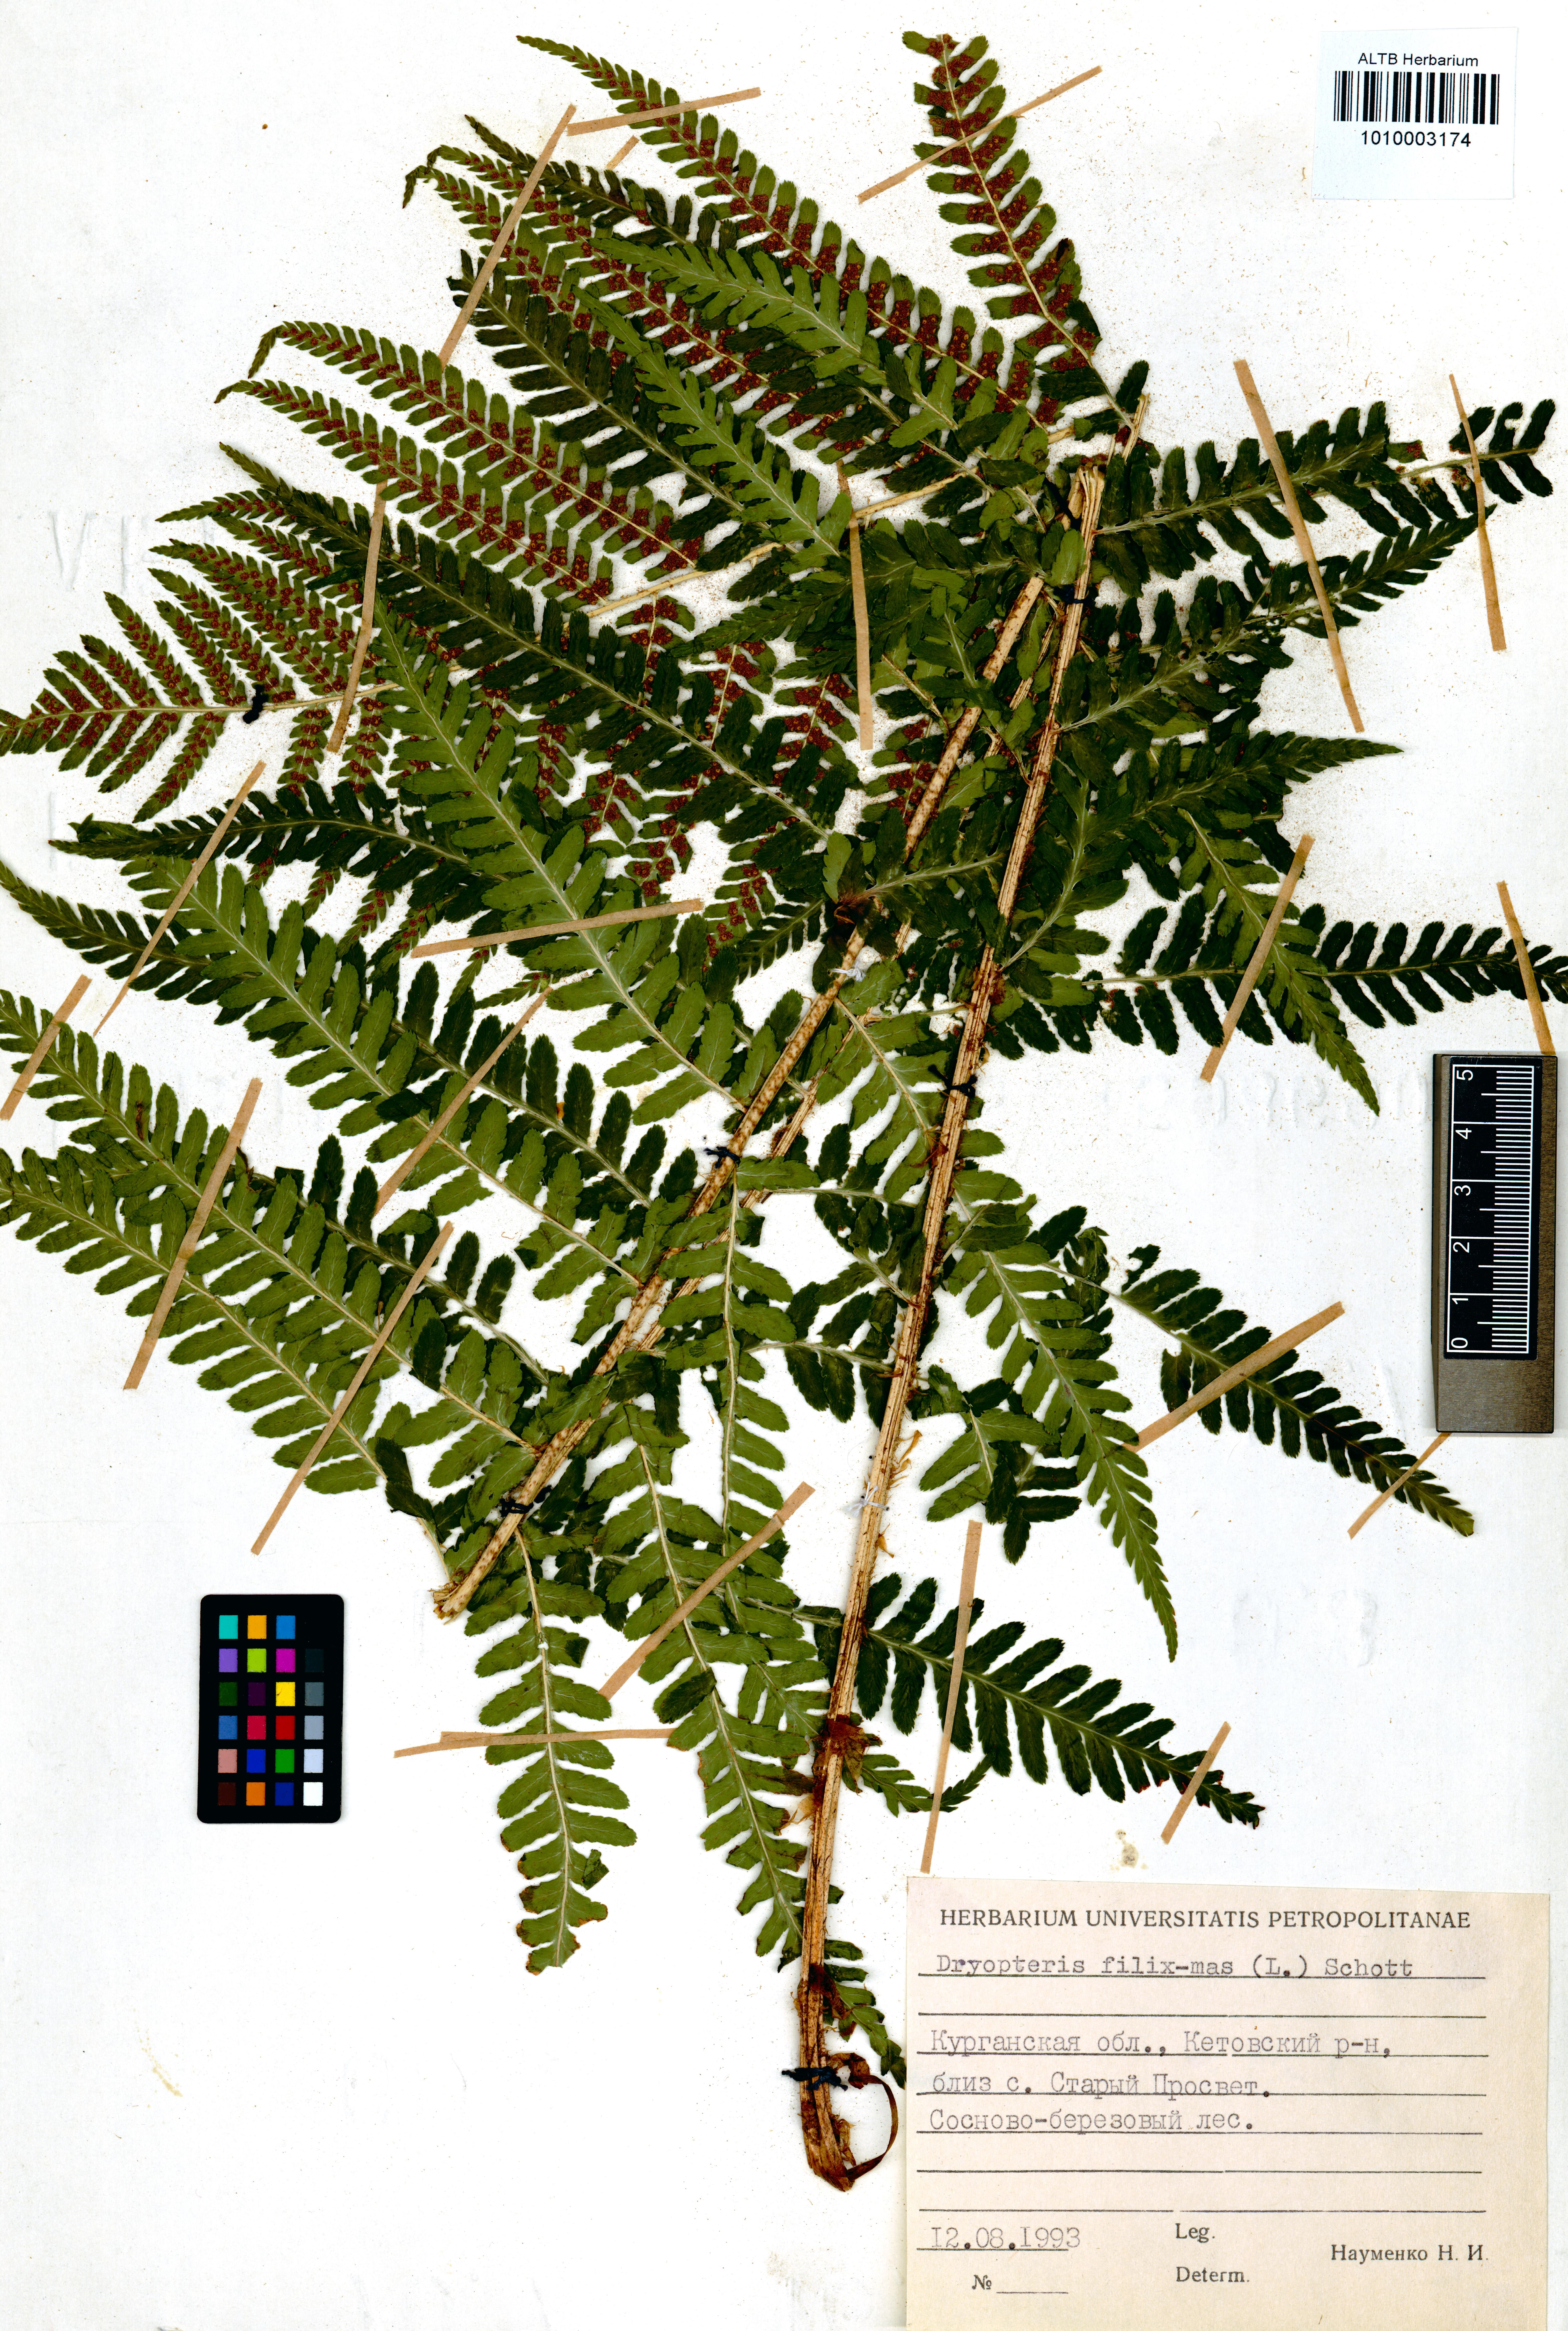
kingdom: Plantae
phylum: Tracheophyta
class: Polypodiopsida
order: Polypodiales
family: Dryopteridaceae
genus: Dryopteris
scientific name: Dryopteris filix-mas
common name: Male fern
